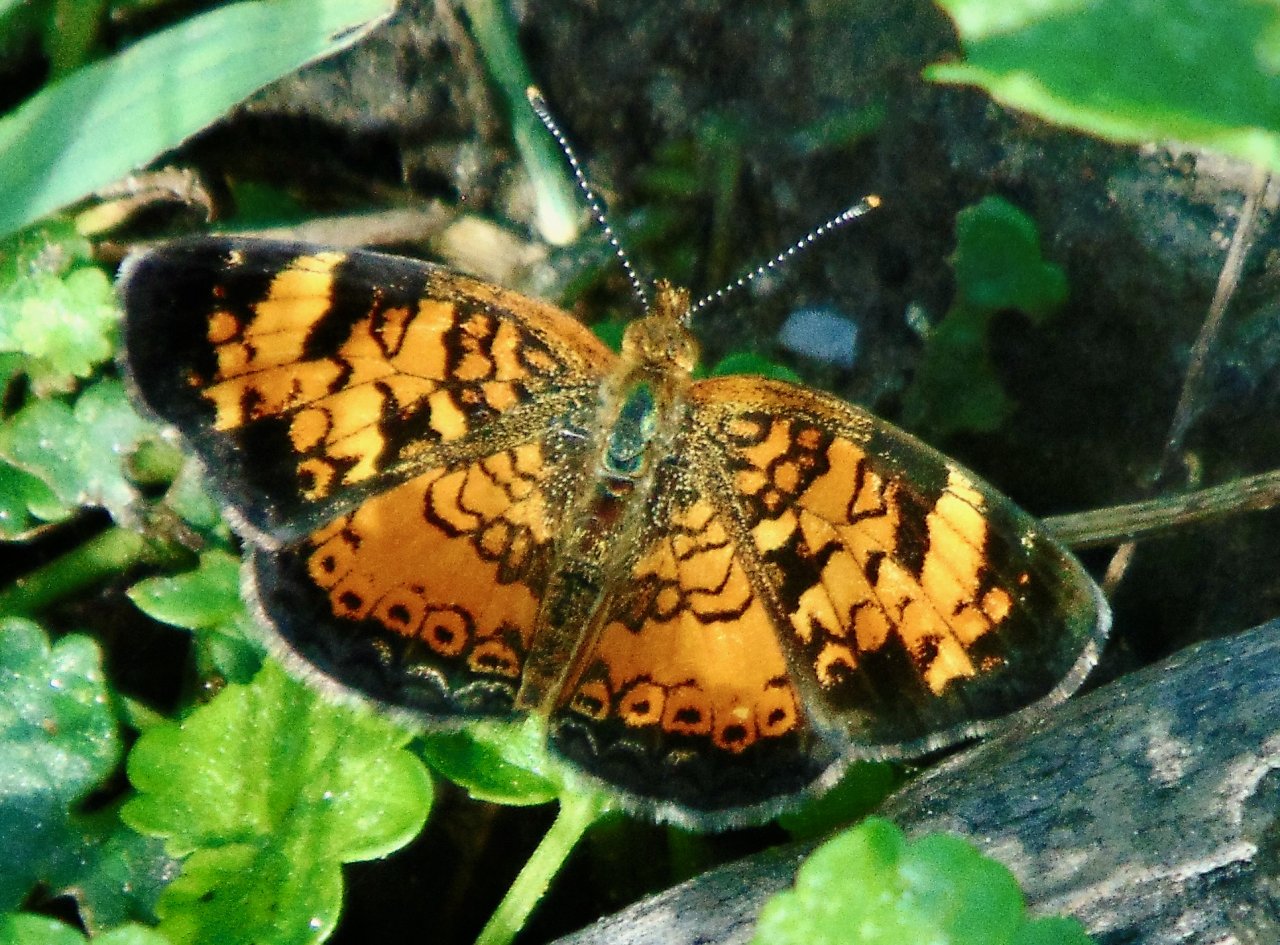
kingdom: Animalia
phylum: Arthropoda
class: Insecta
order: Lepidoptera
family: Nymphalidae
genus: Phyciodes
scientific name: Phyciodes tharos
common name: Pearl Crescent
